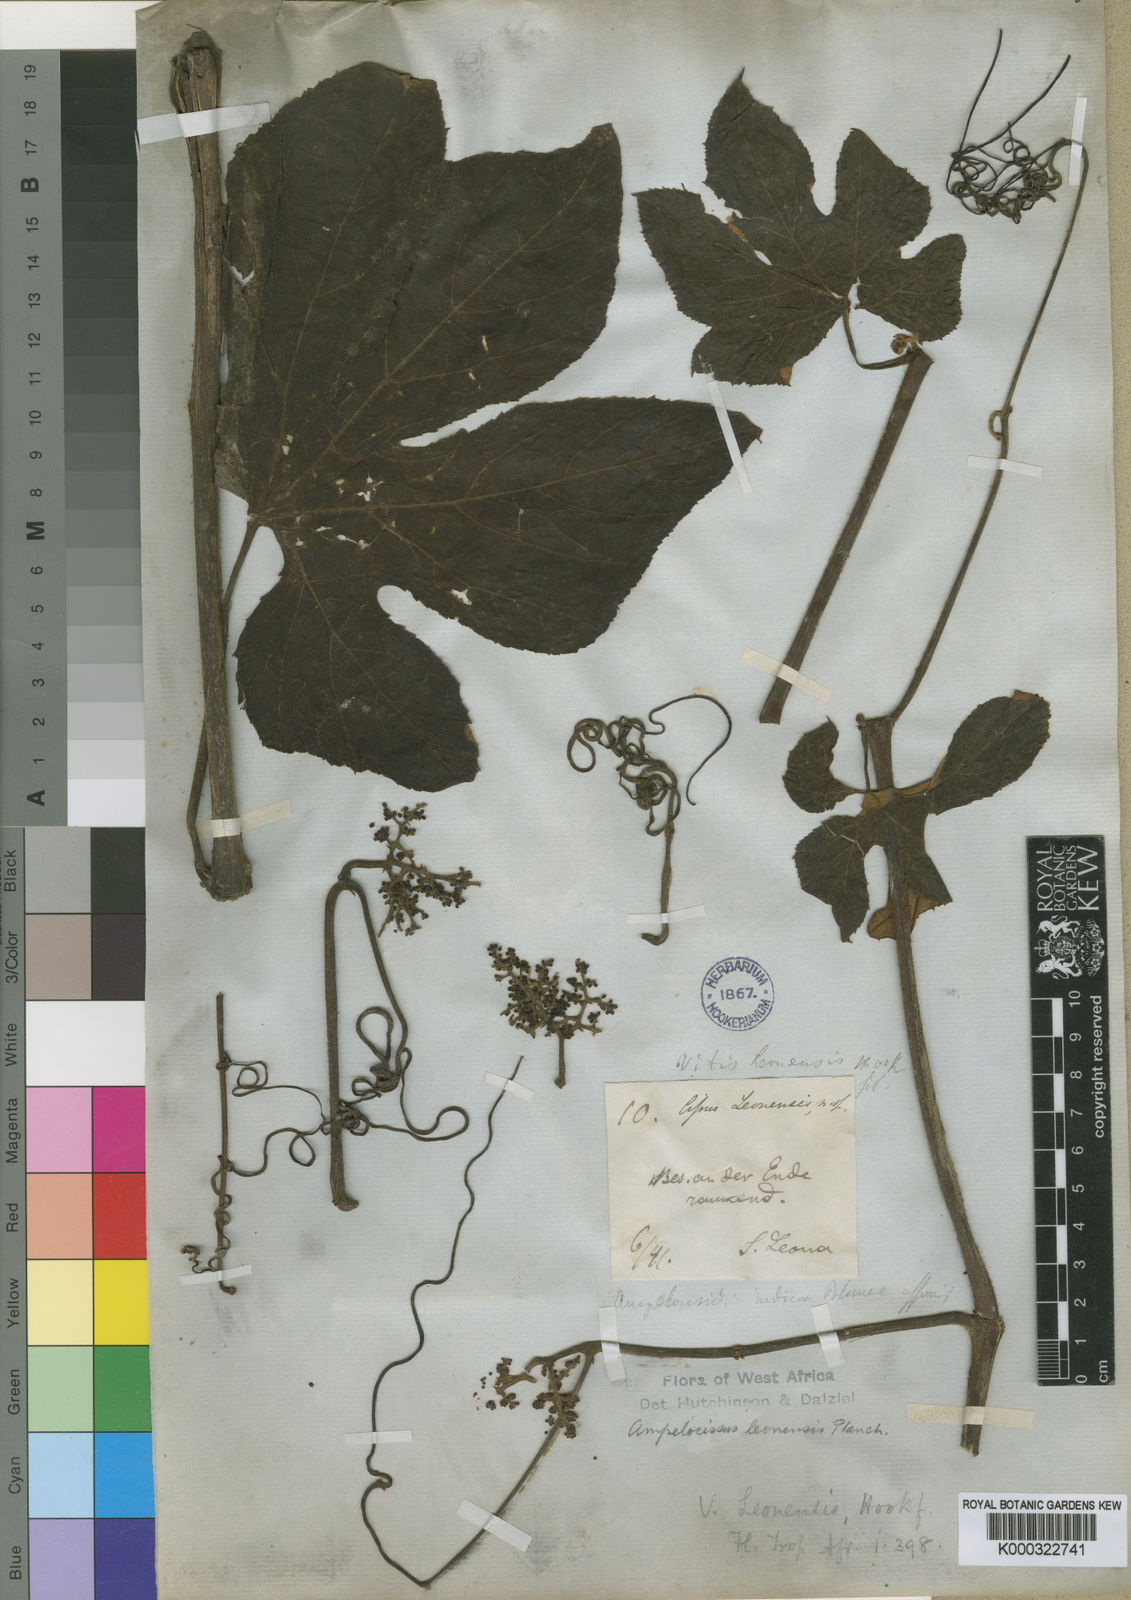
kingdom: Plantae
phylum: Tracheophyta
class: Magnoliopsida
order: Vitales
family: Vitaceae
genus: Ampelocissus
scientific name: Ampelocissus leonensis
